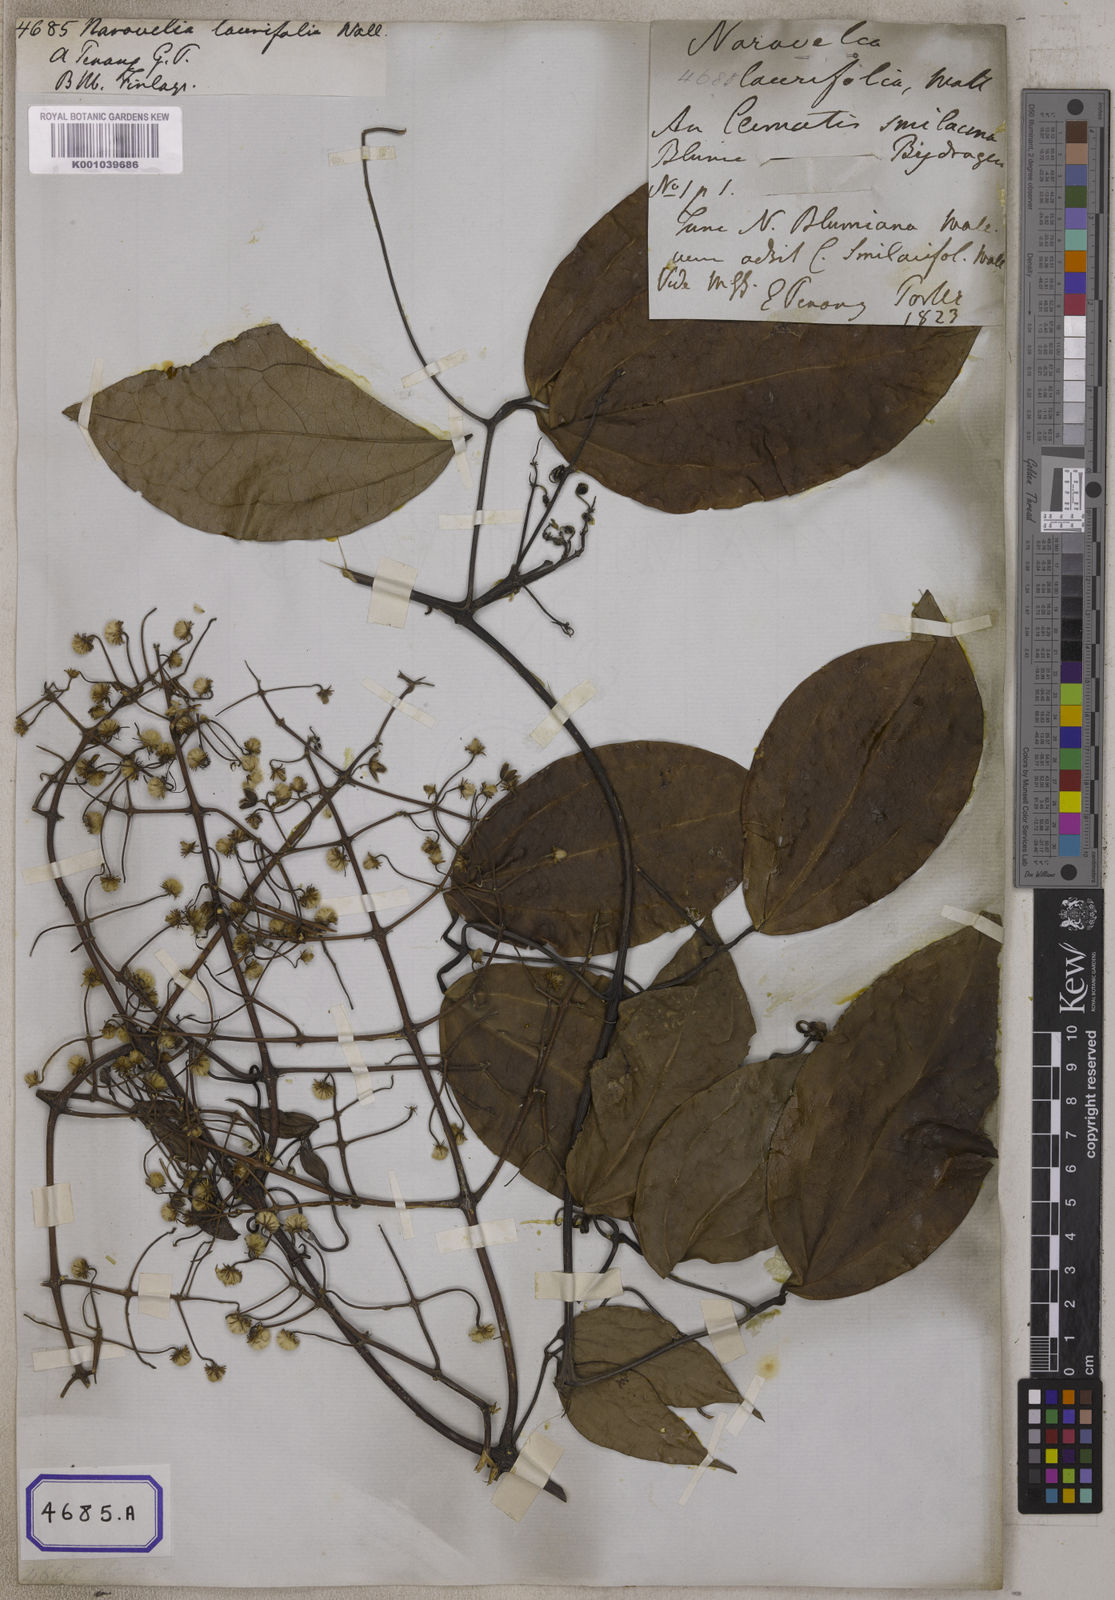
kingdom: Plantae
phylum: Tracheophyta
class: Magnoliopsida
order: Ranunculales
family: Ranunculaceae
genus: Clematis
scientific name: Clematis
